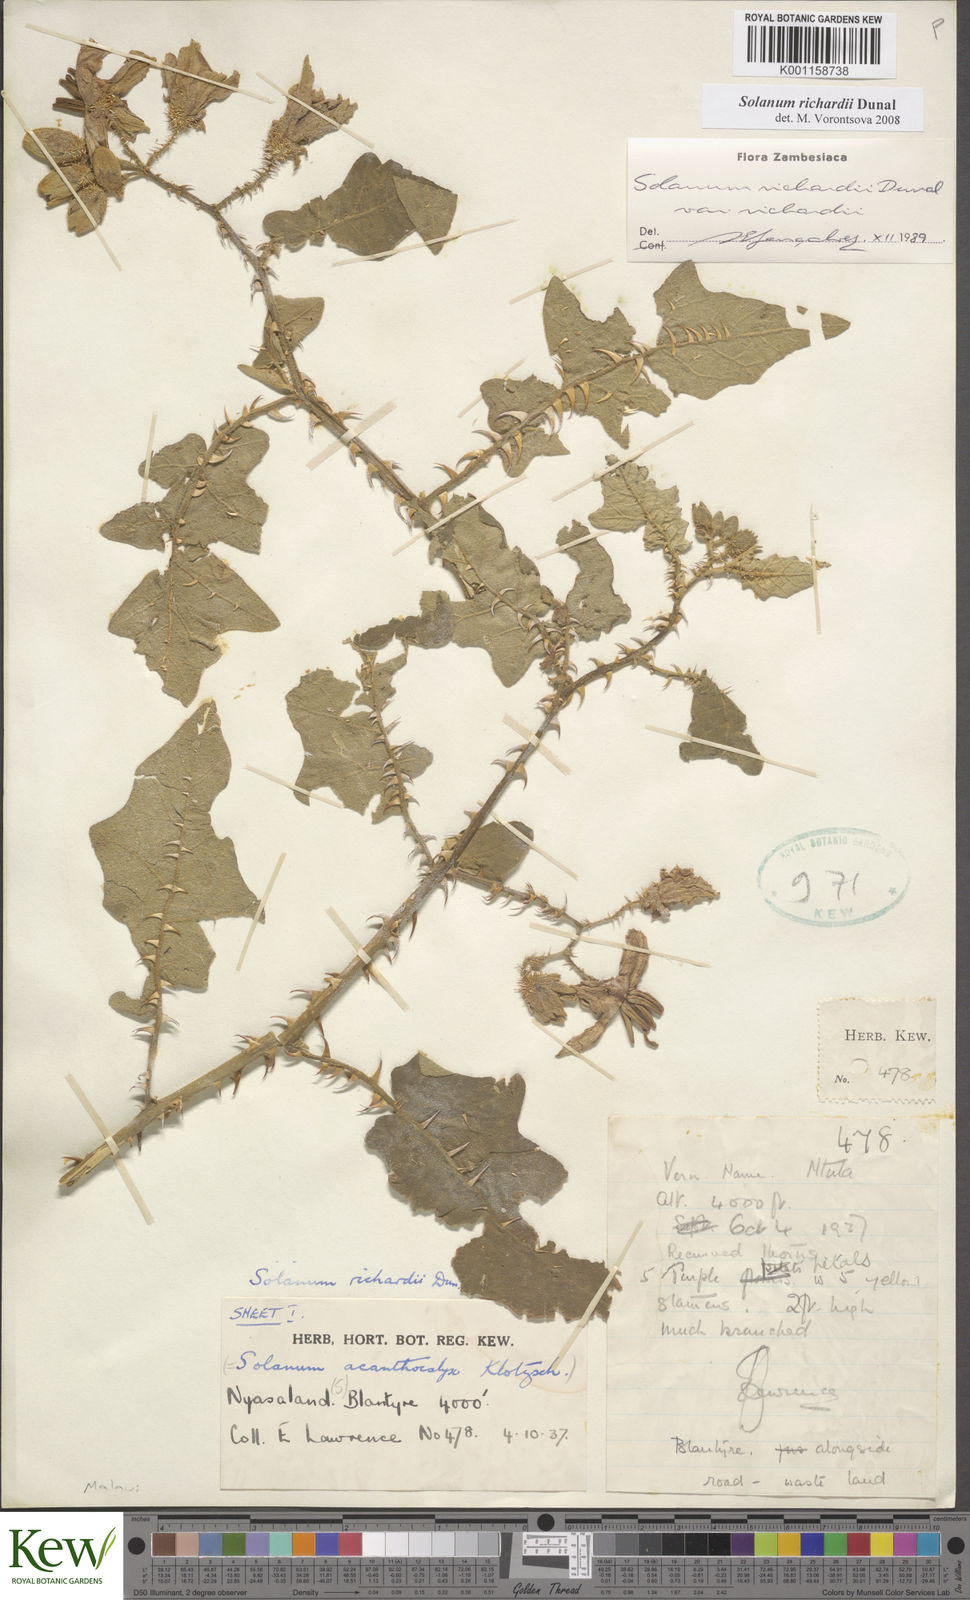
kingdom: Plantae
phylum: Tracheophyta
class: Magnoliopsida
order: Solanales
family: Solanaceae
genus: Solanum
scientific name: Solanum richardii
